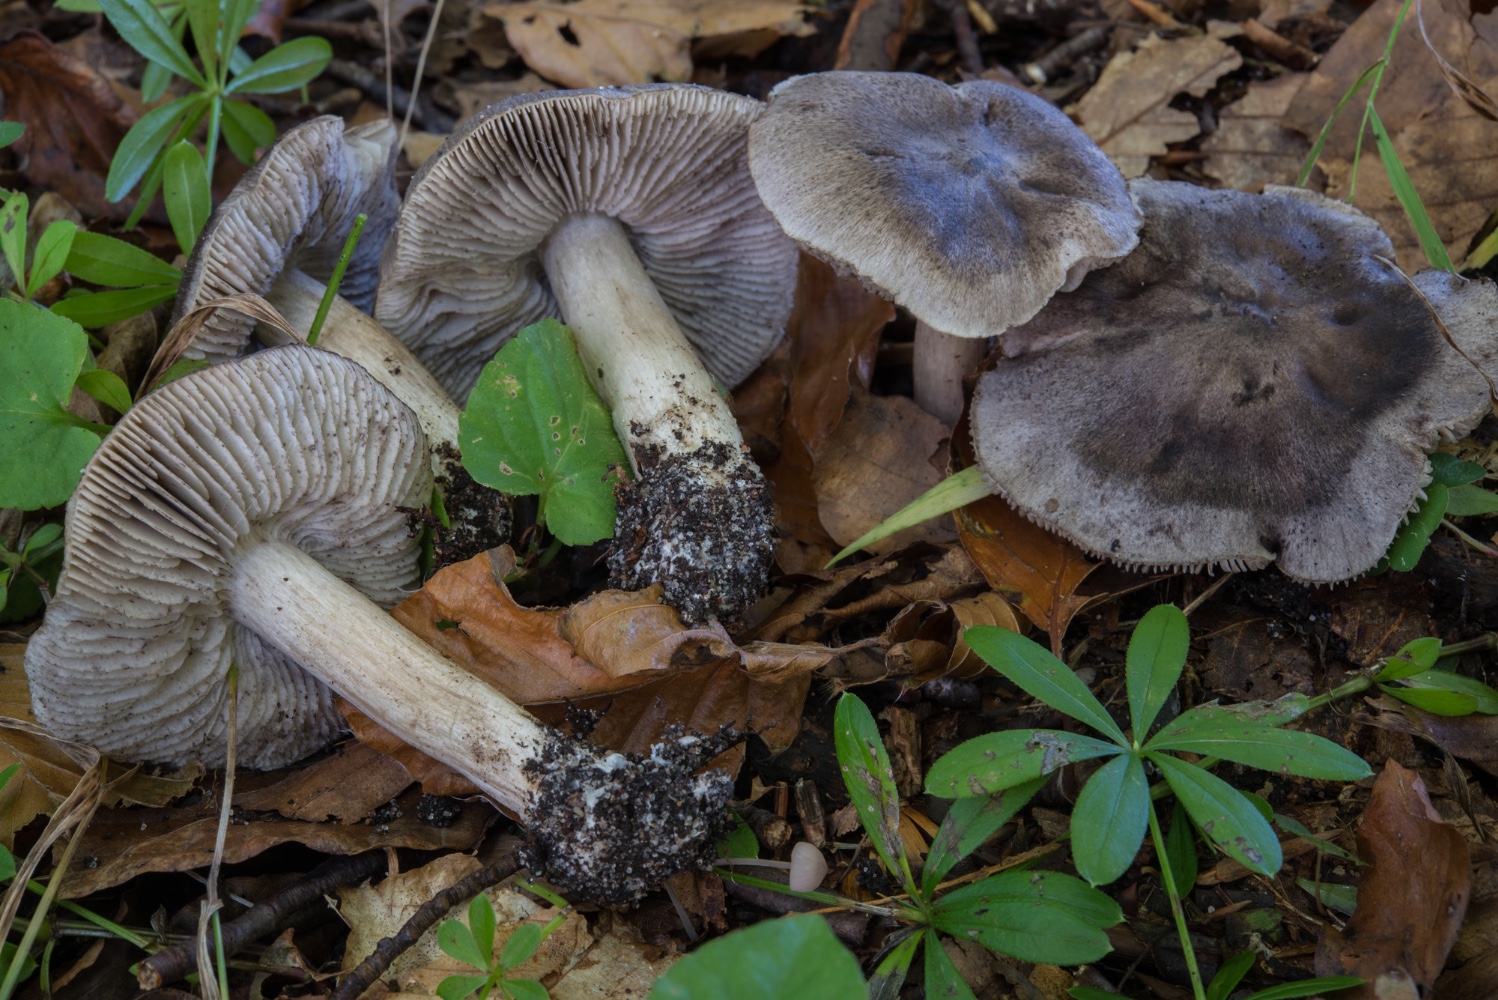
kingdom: Fungi
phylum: Basidiomycota
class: Agaricomycetes
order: Agaricales
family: Tricholomataceae
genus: Tricholoma
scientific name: Tricholoma sciodes
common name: stribet ridderhat
